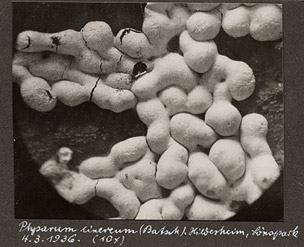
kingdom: Protozoa
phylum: Mycetozoa
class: Myxomycetes
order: Physarales
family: Physaraceae
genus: Physarum
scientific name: Physarum cinereum
